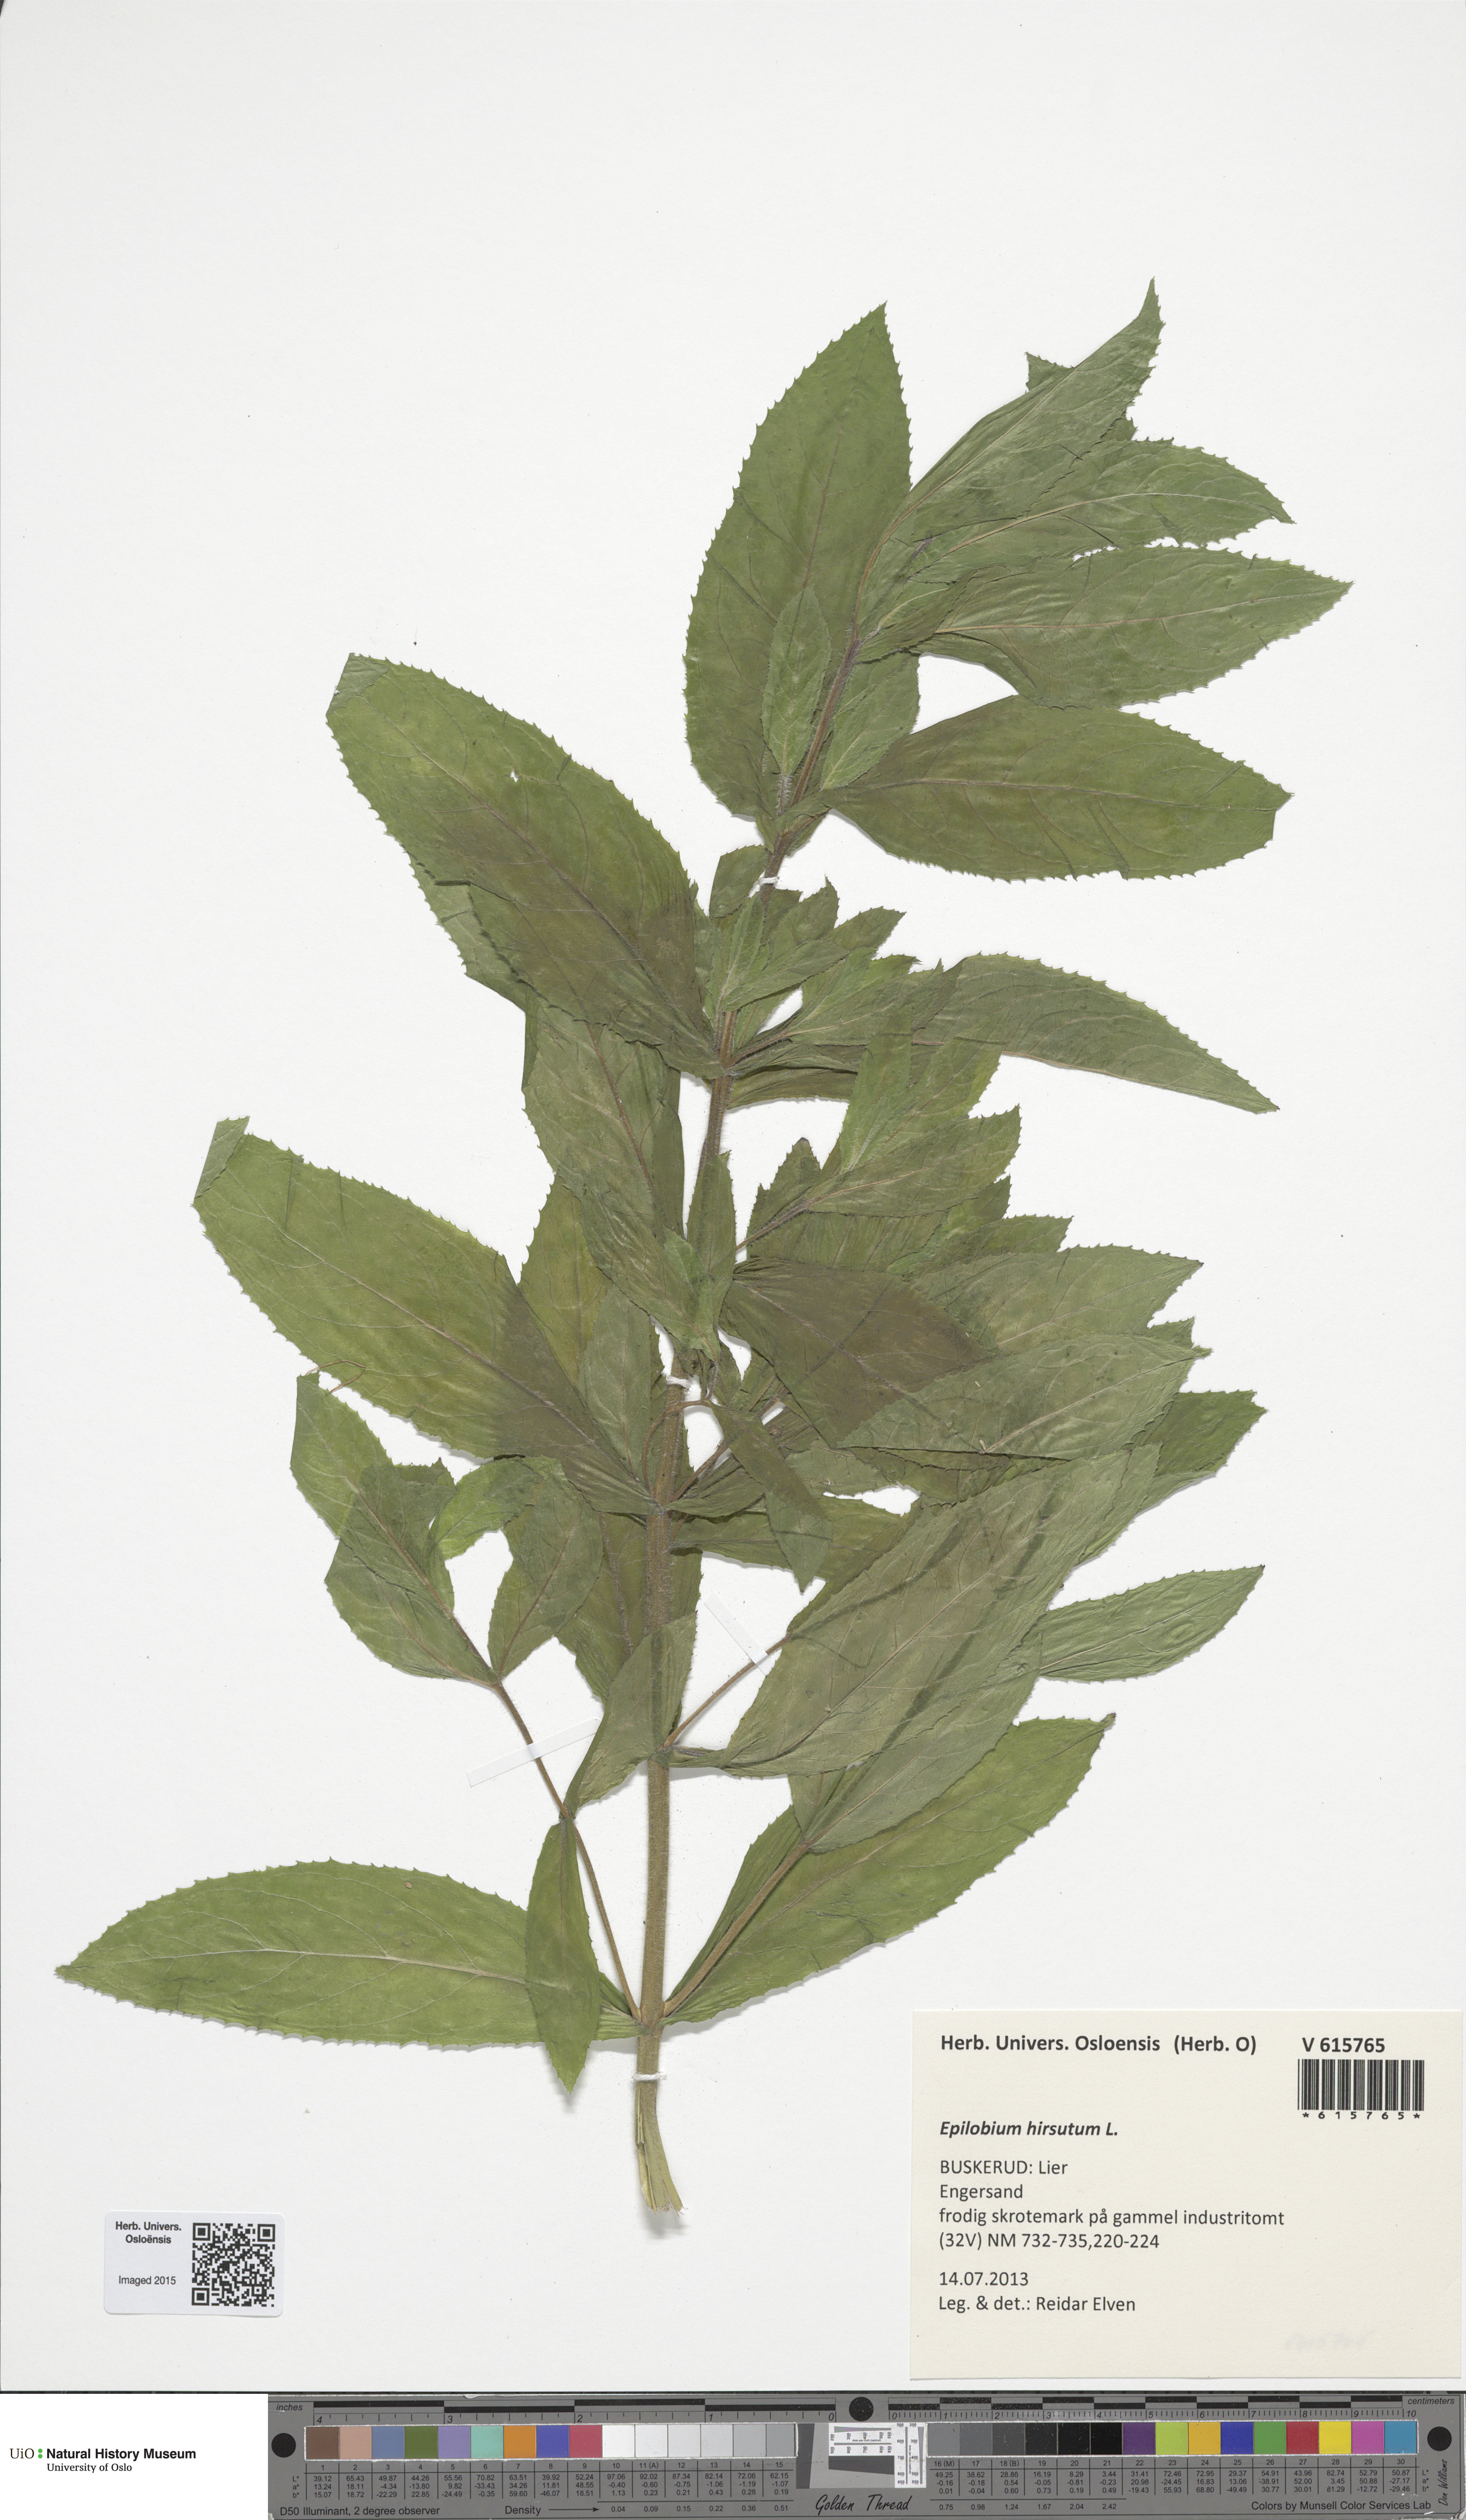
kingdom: Plantae
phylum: Tracheophyta
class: Magnoliopsida
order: Myrtales
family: Onagraceae
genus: Epilobium
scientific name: Epilobium hirsutum
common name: Great willowherb
